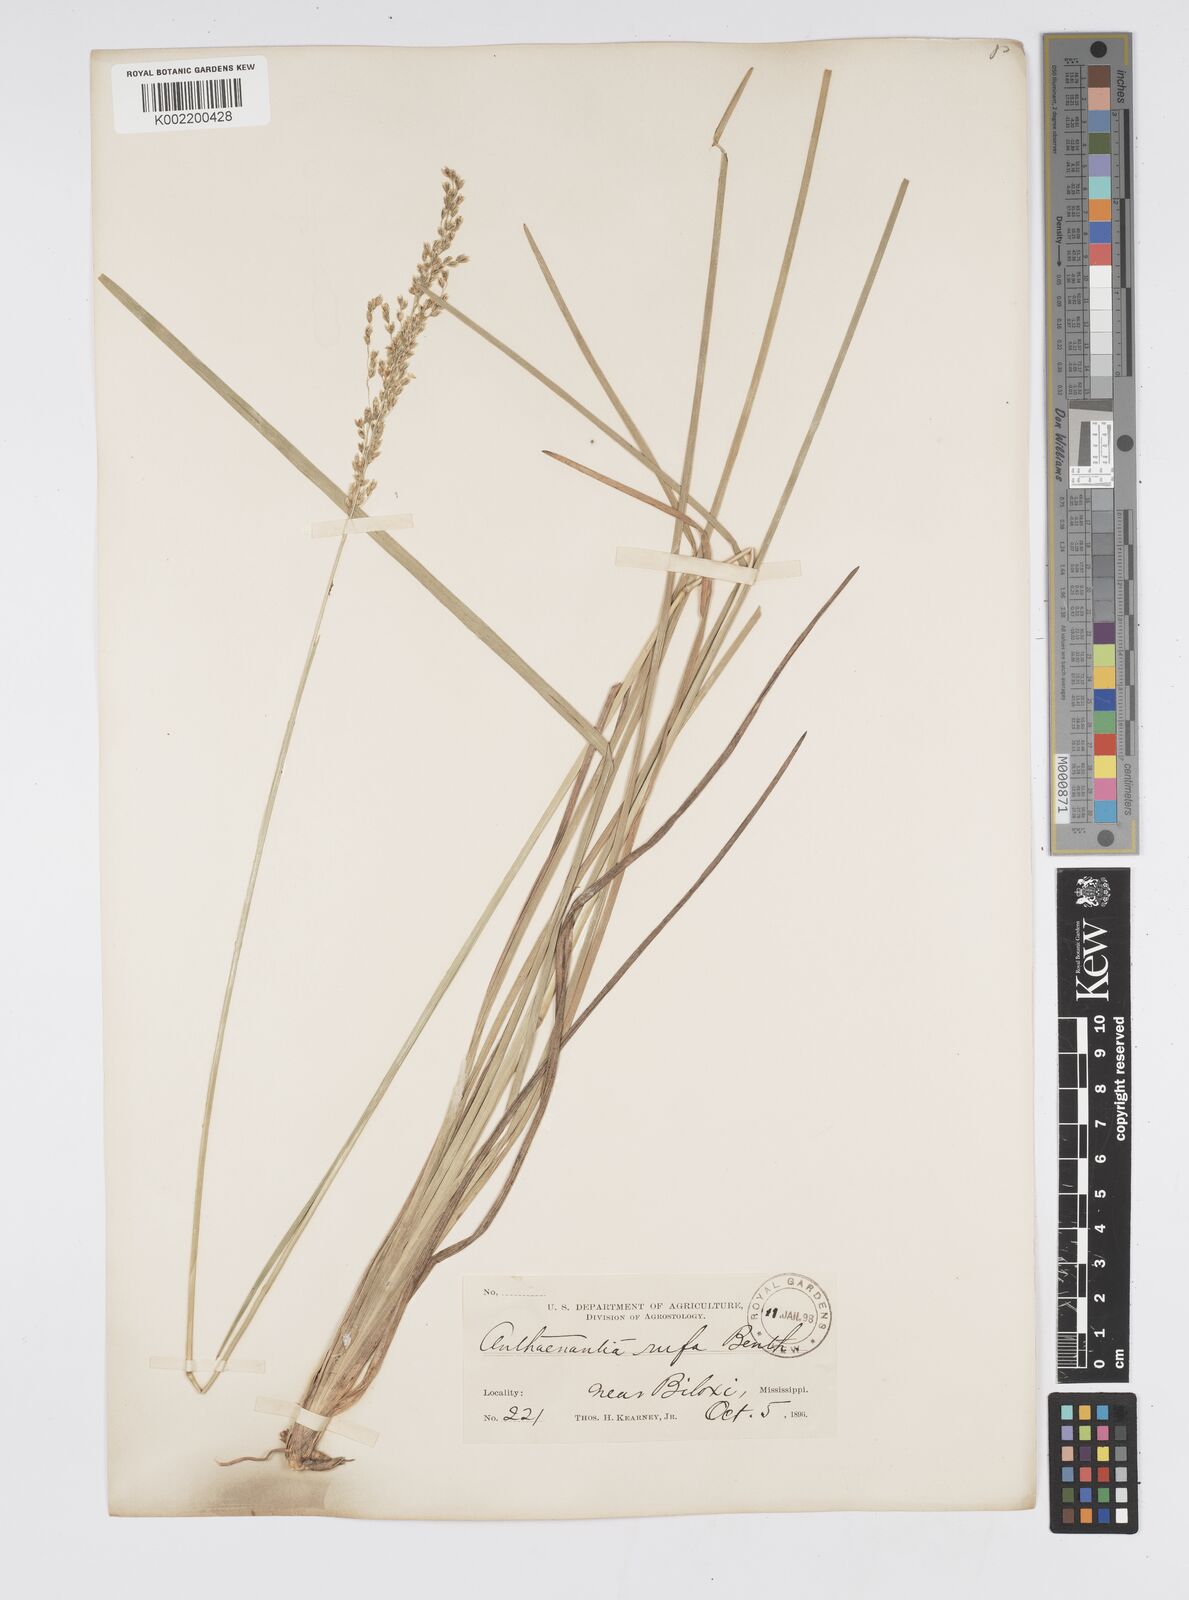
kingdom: Plantae
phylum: Tracheophyta
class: Liliopsida
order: Poales
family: Poaceae
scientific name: Poaceae
